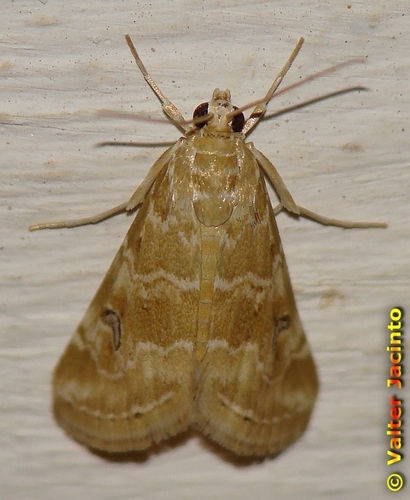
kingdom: Animalia
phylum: Arthropoda
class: Insecta
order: Lepidoptera
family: Crambidae
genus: Hellula
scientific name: Hellula undalis
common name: Cabbage webworm
